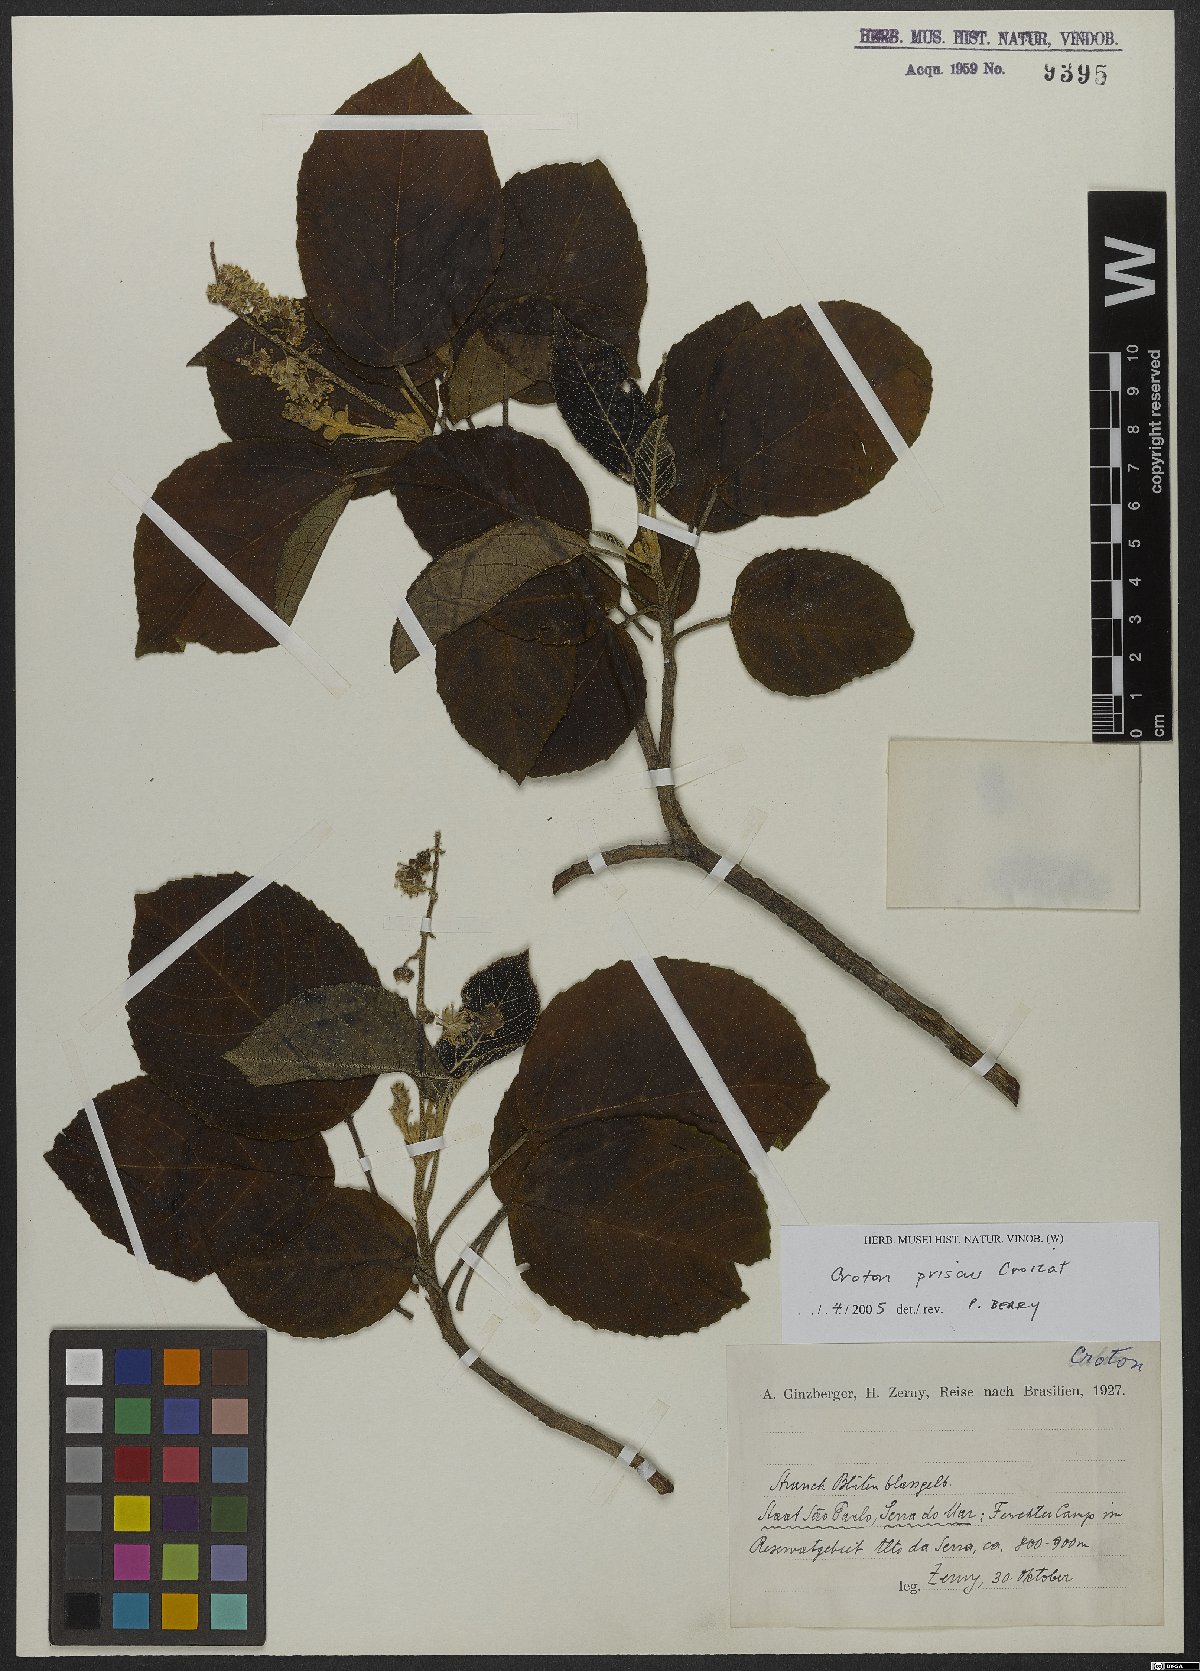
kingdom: Plantae
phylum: Tracheophyta
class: Magnoliopsida
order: Malpighiales
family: Euphorbiaceae
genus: Croton
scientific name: Croton priscus
